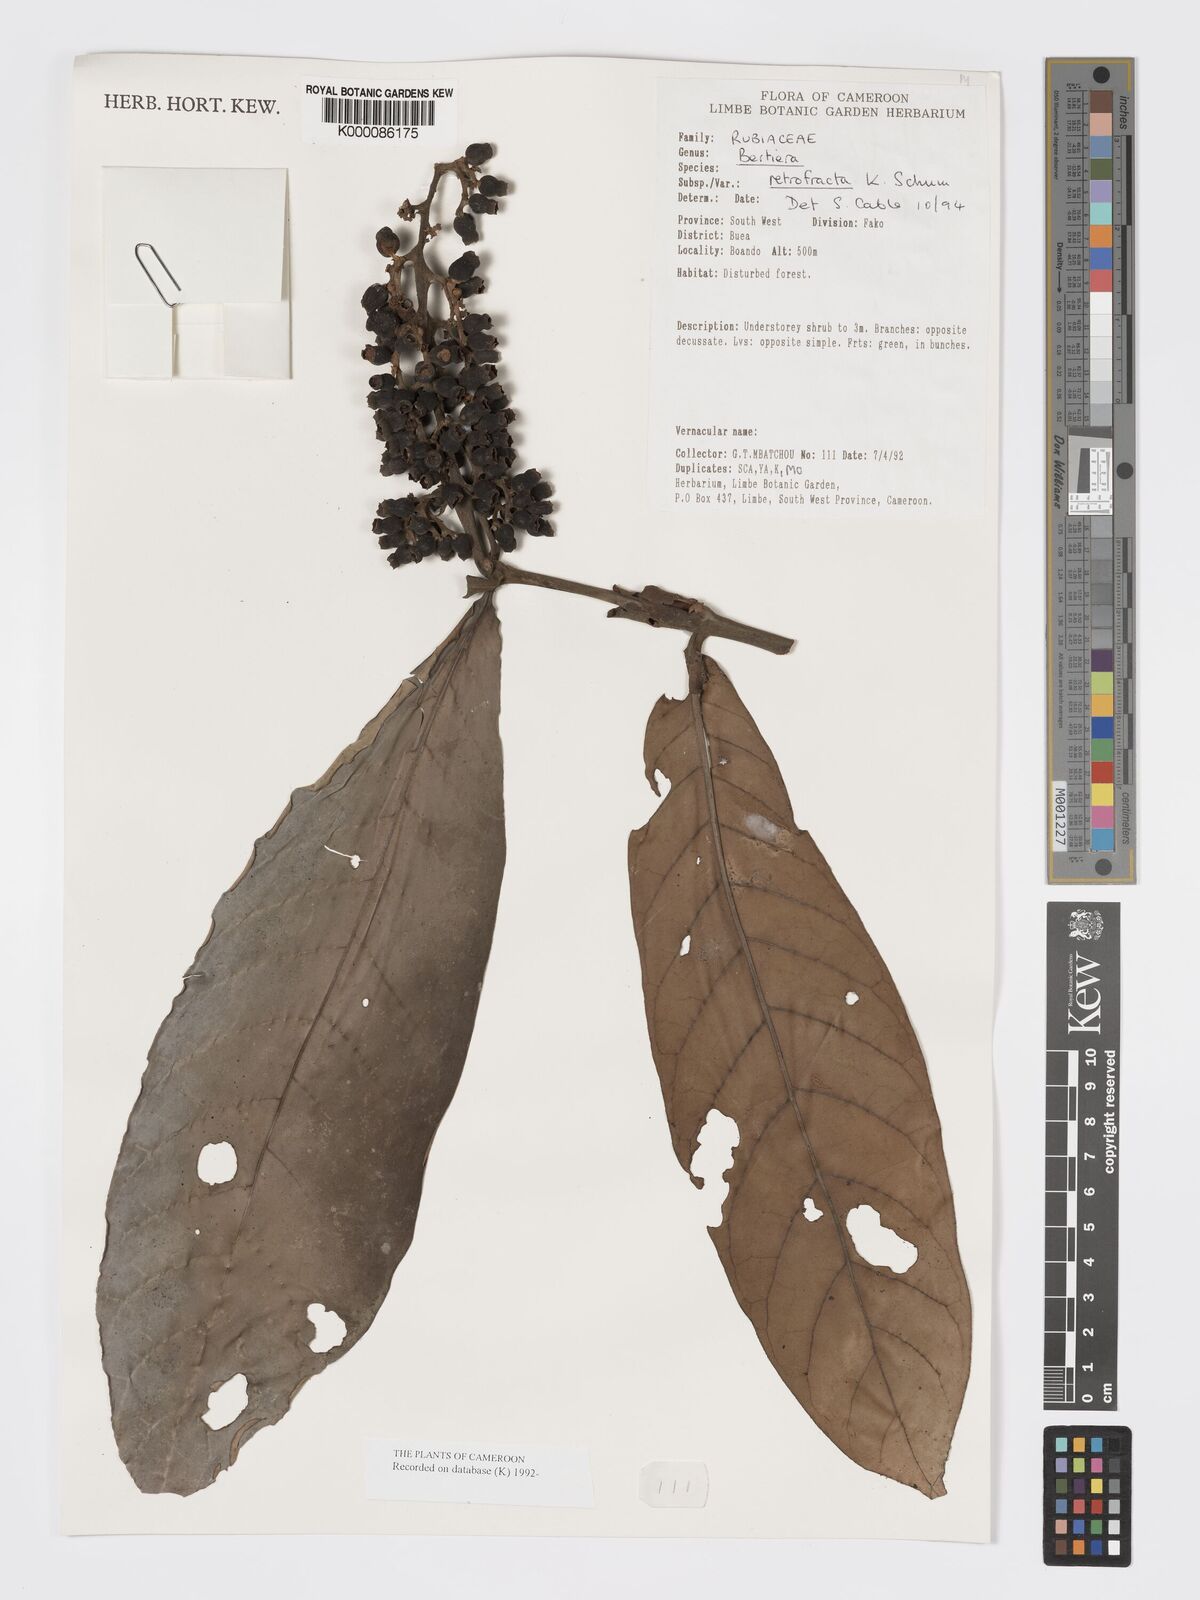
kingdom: Plantae
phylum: Tracheophyta
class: Magnoliopsida
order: Gentianales
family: Rubiaceae
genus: Bertiera
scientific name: Bertiera retrofracta
